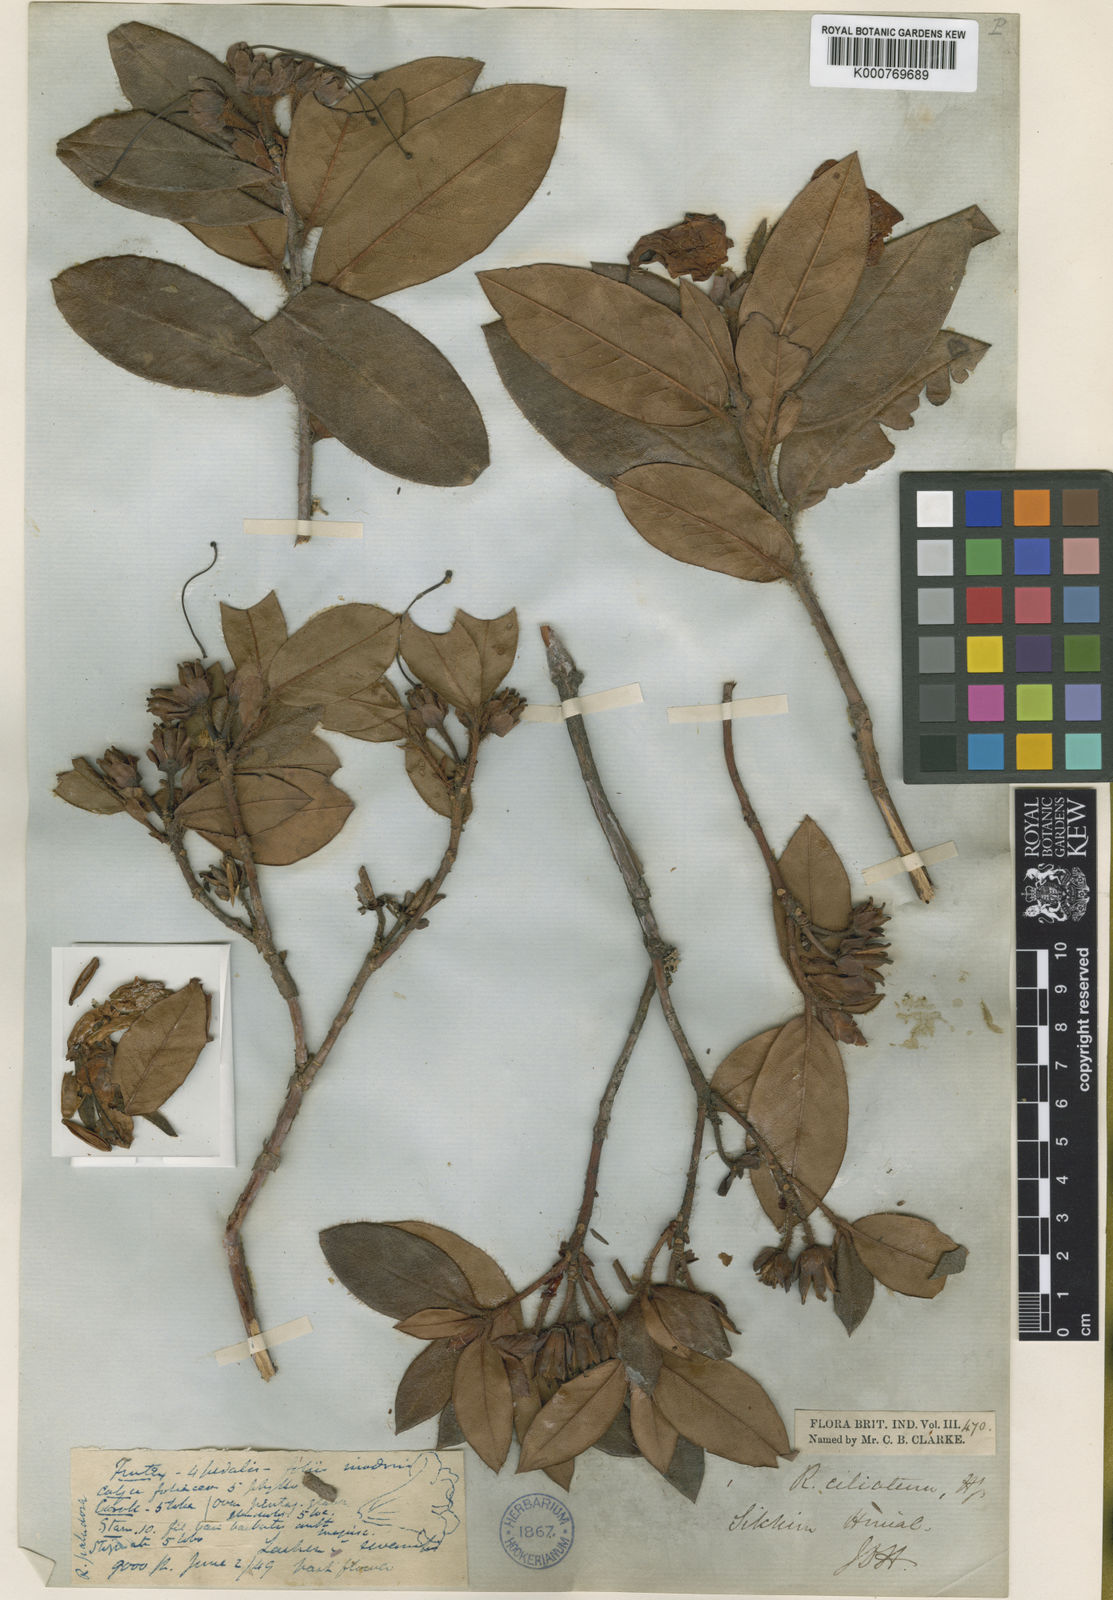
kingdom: Plantae
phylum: Tracheophyta
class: Magnoliopsida
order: Ericales
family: Ericaceae
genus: Rhododendron
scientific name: Rhododendron ciliatum
